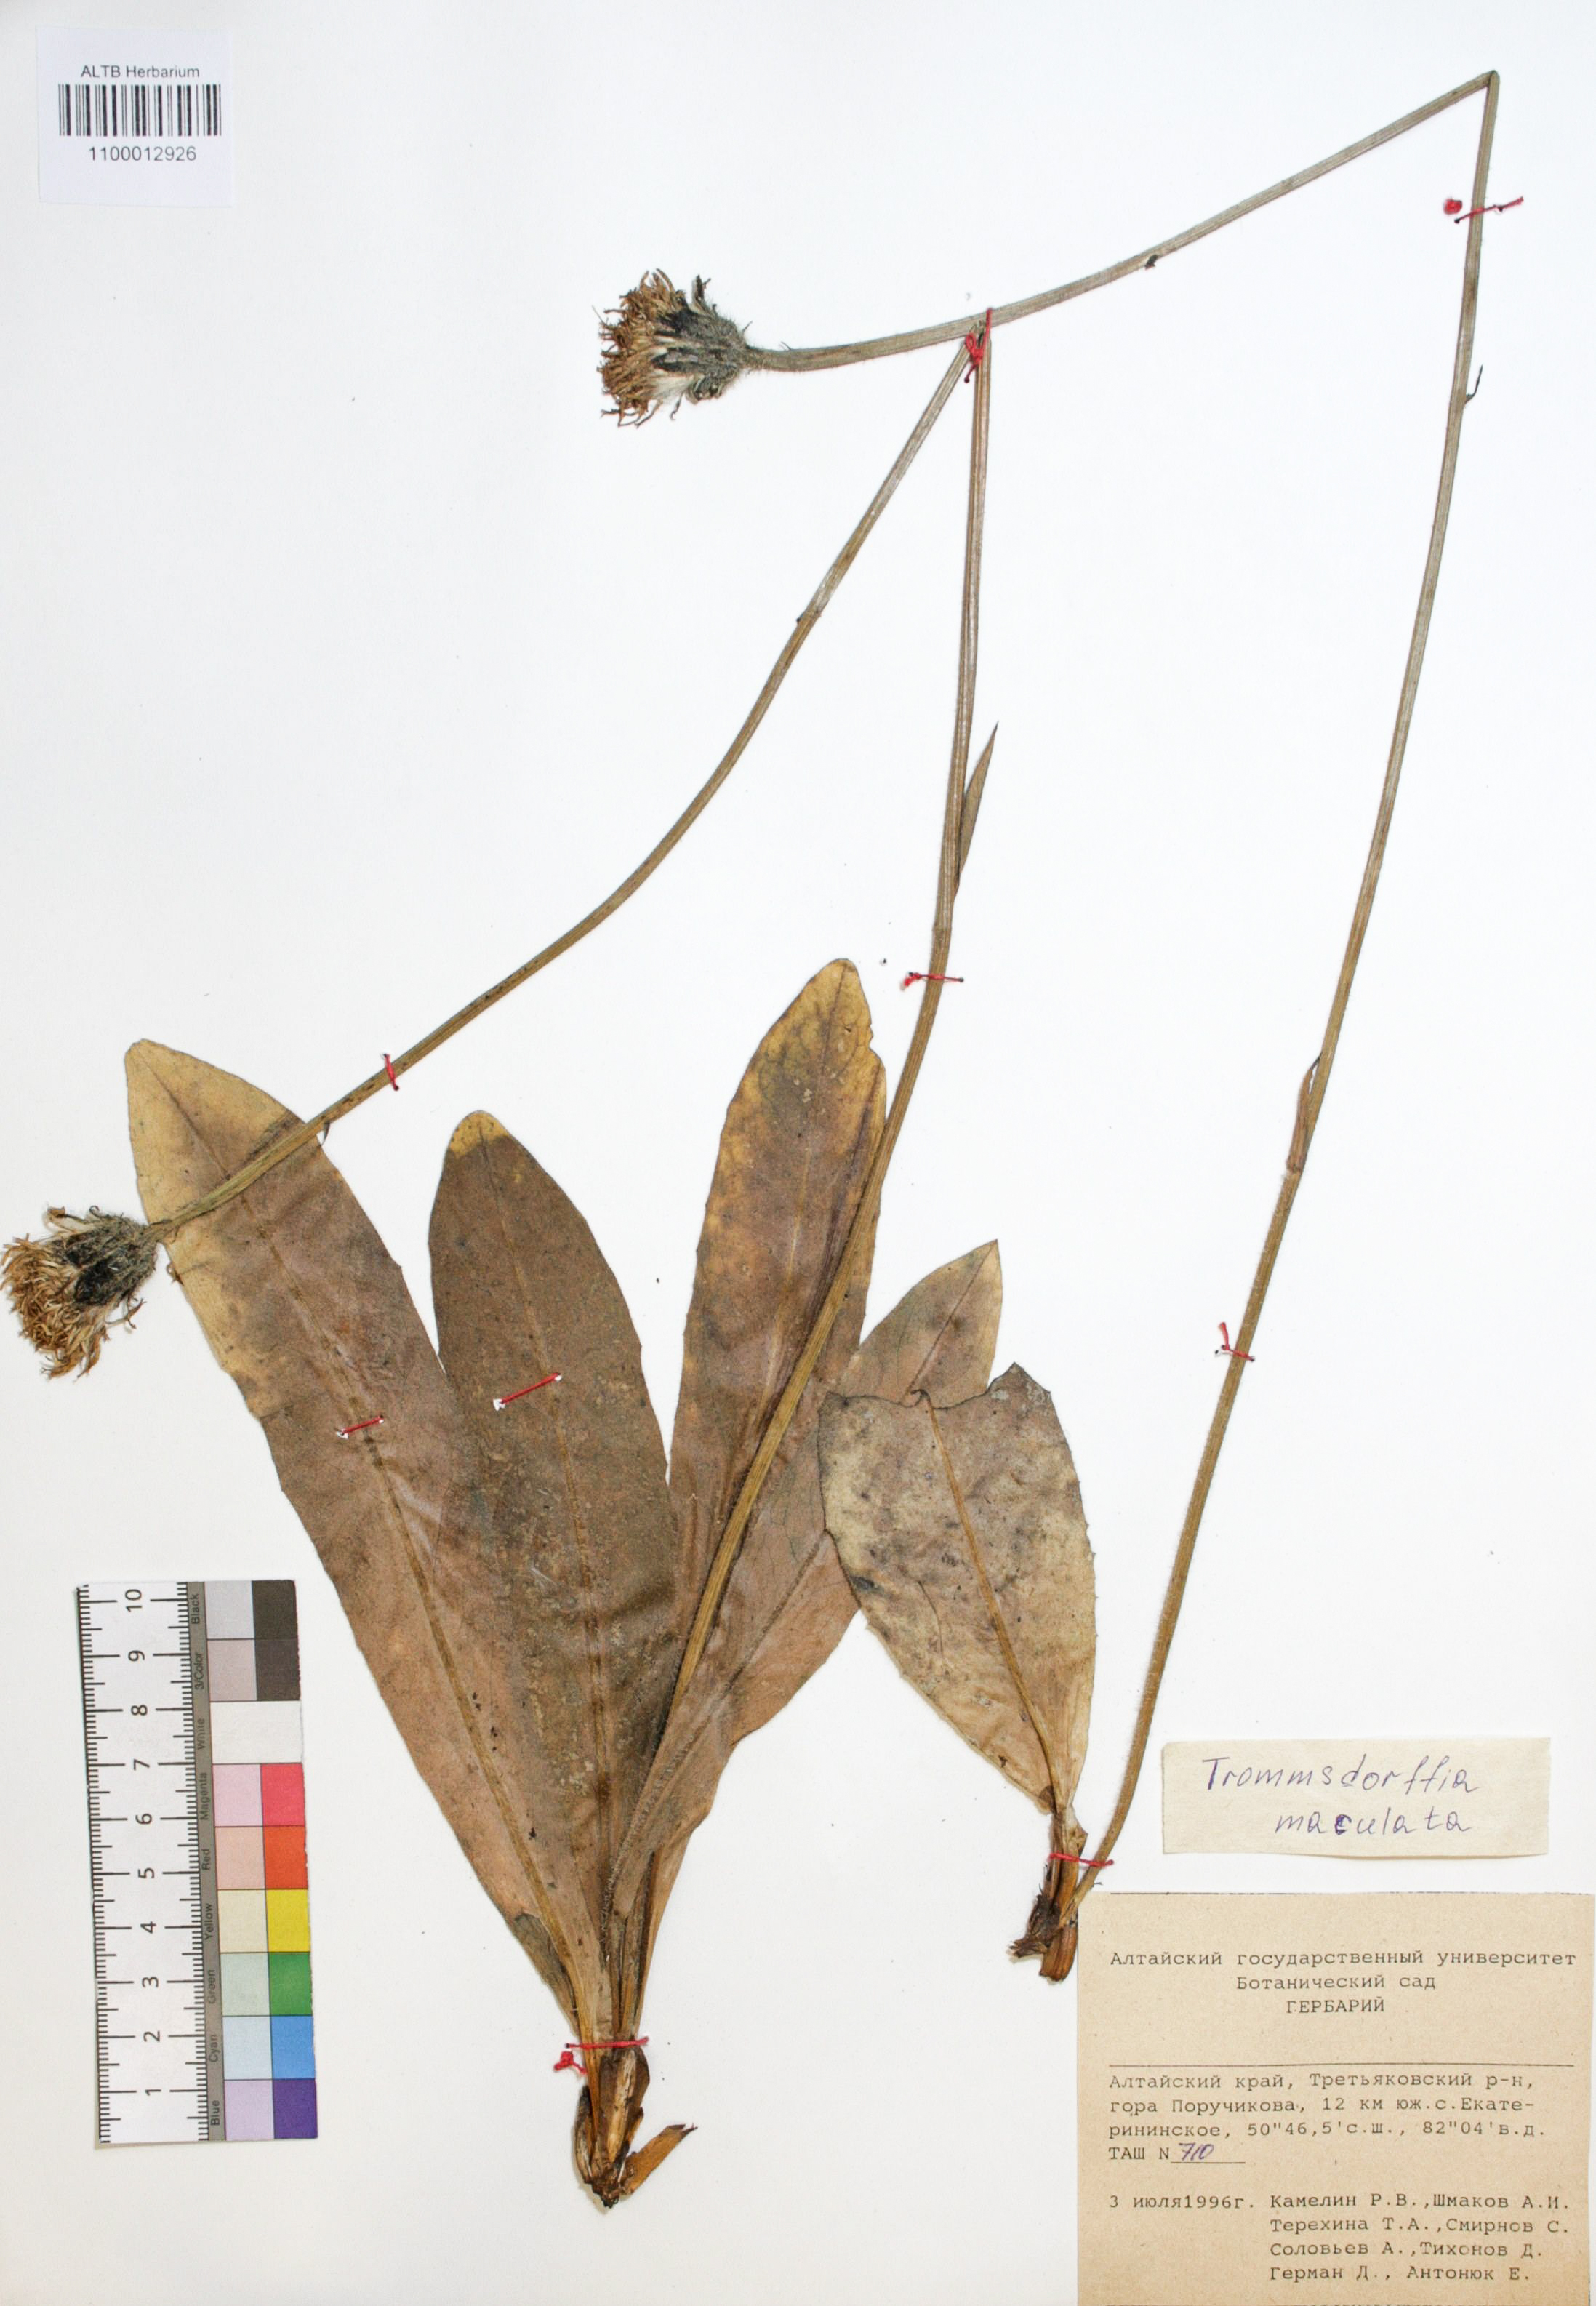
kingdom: Plantae
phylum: Tracheophyta
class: Magnoliopsida
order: Asterales
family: Asteraceae
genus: Trommsdorffia
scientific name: Trommsdorffia maculata
